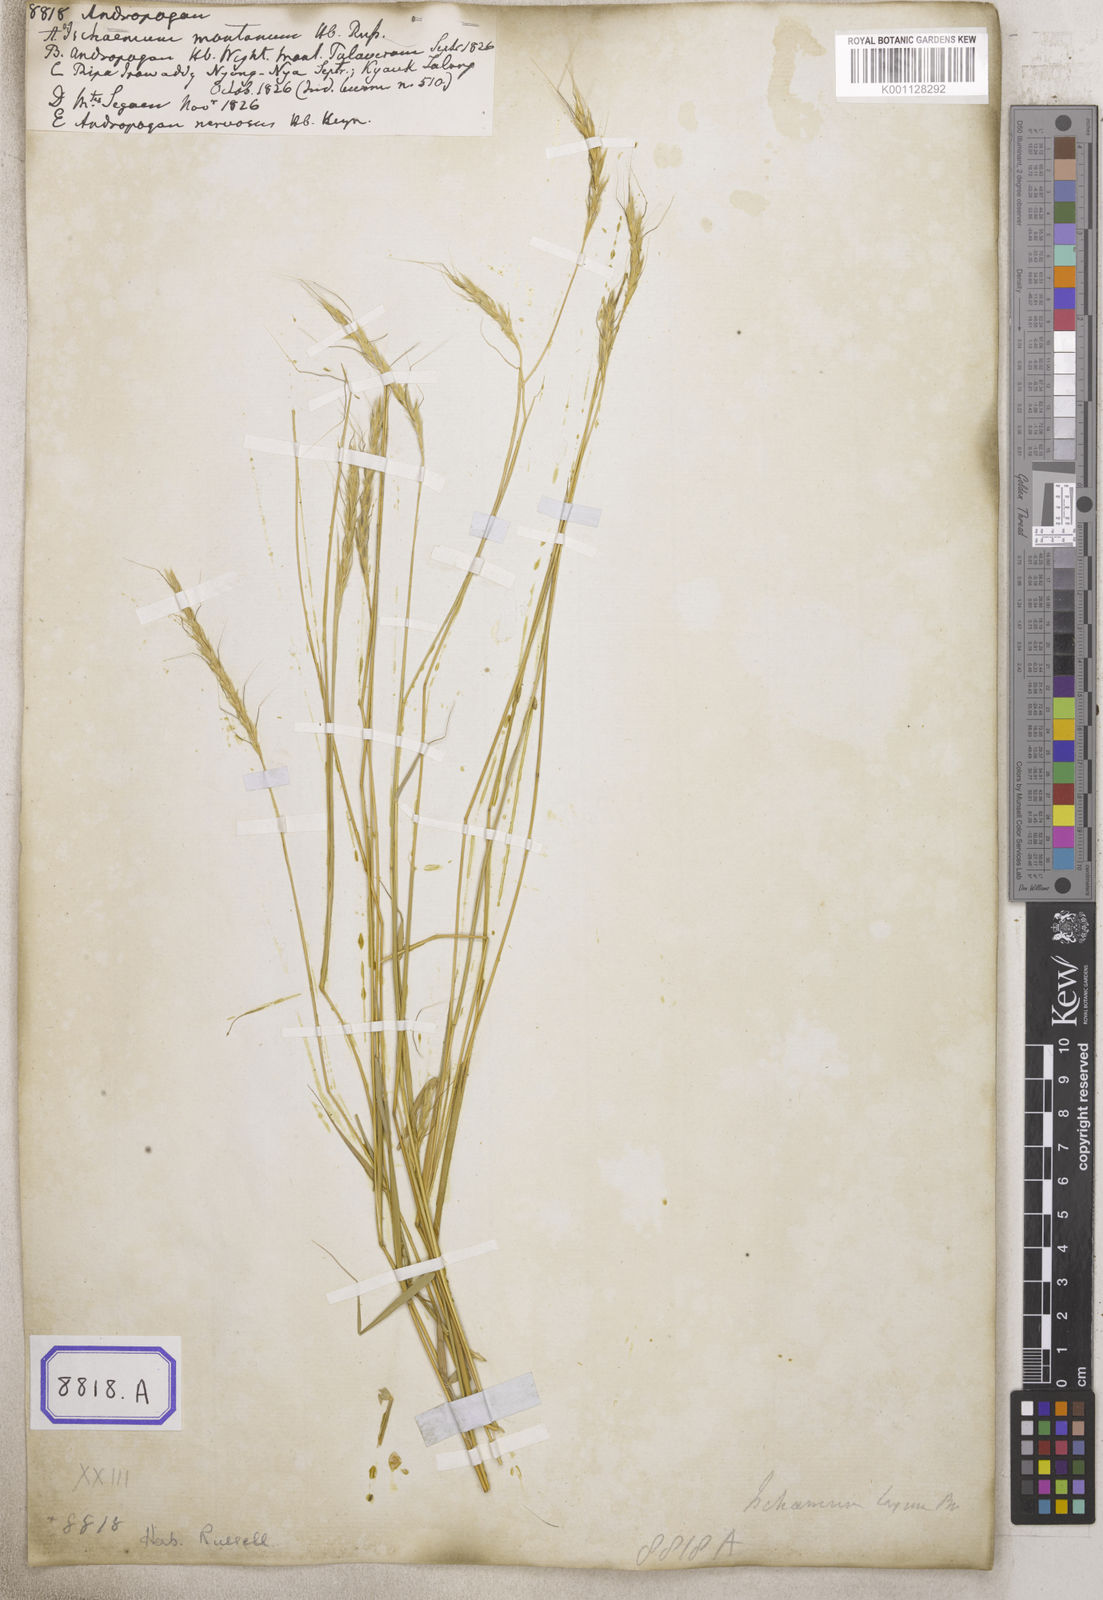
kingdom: Plantae
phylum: Tracheophyta
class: Liliopsida
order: Poales
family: Poaceae
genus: Andropogon
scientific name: Andropogon
